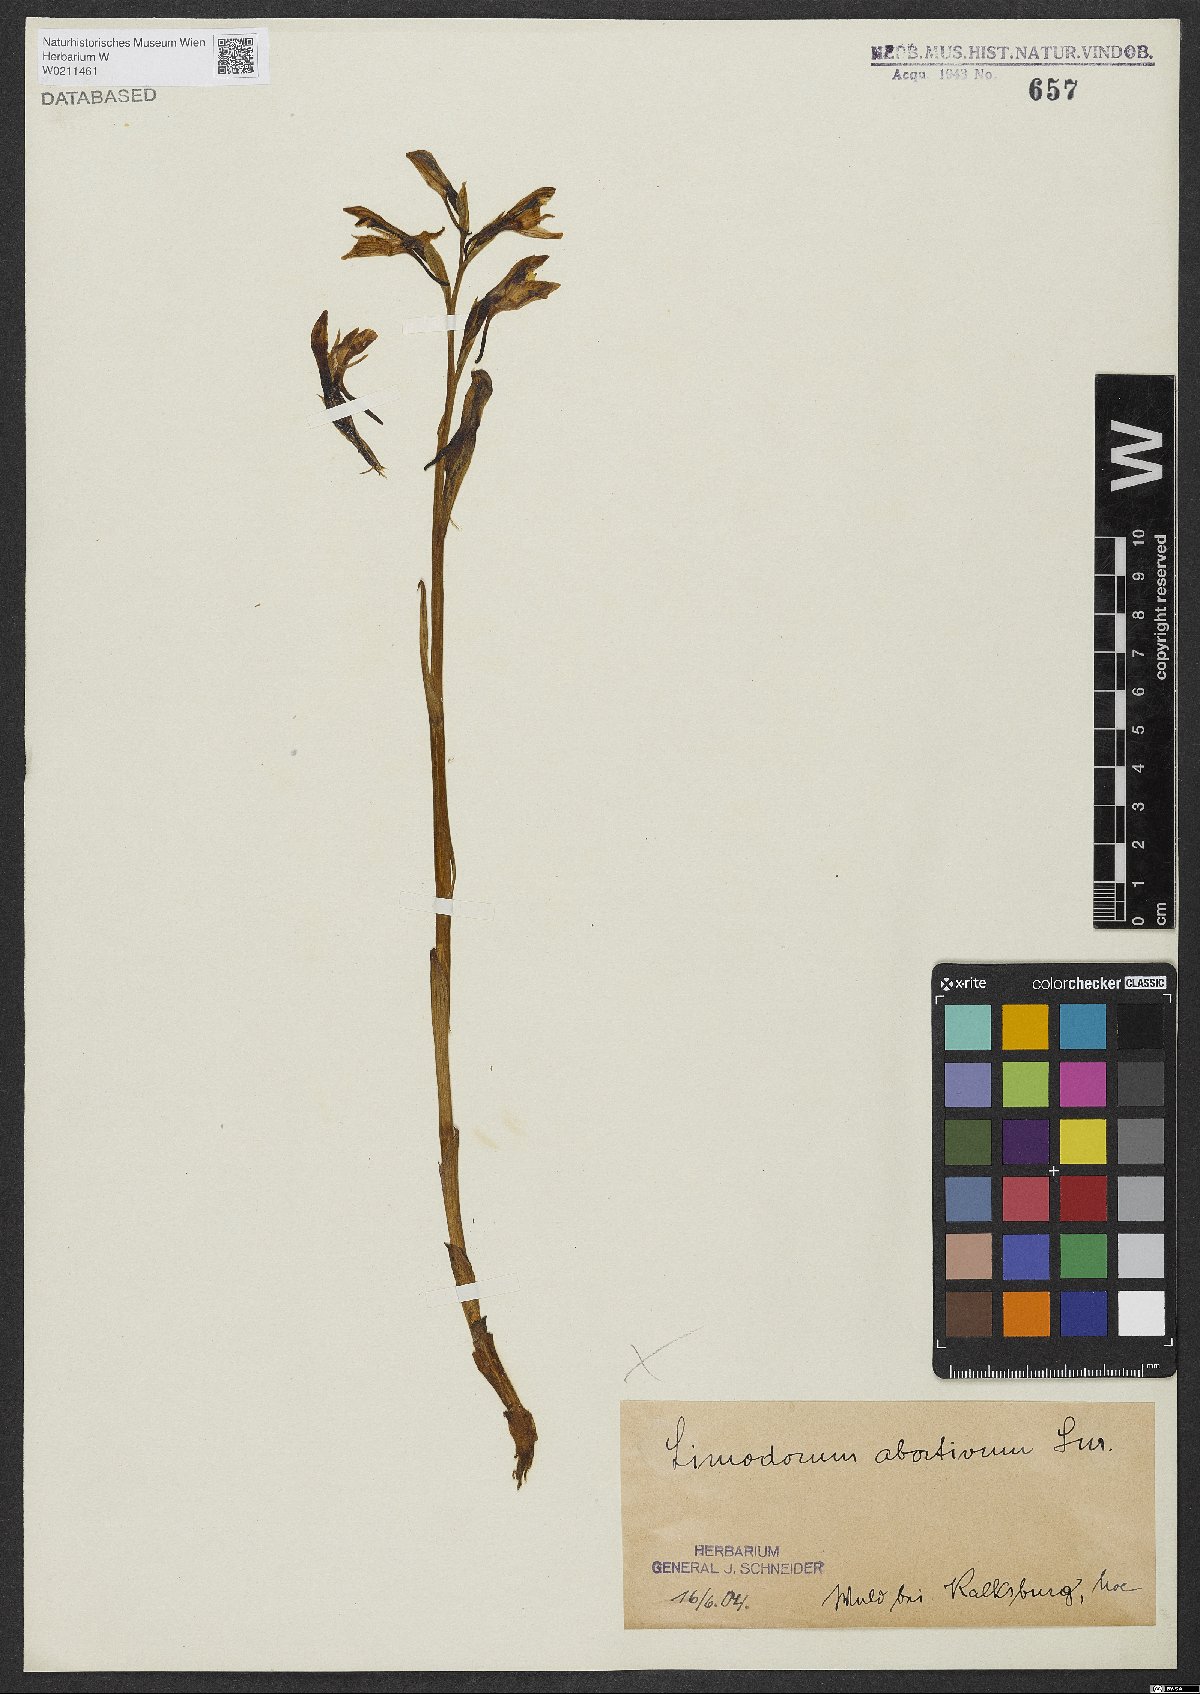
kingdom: Plantae
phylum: Tracheophyta
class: Liliopsida
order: Asparagales
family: Orchidaceae
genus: Limodorum
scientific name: Limodorum abortivum
